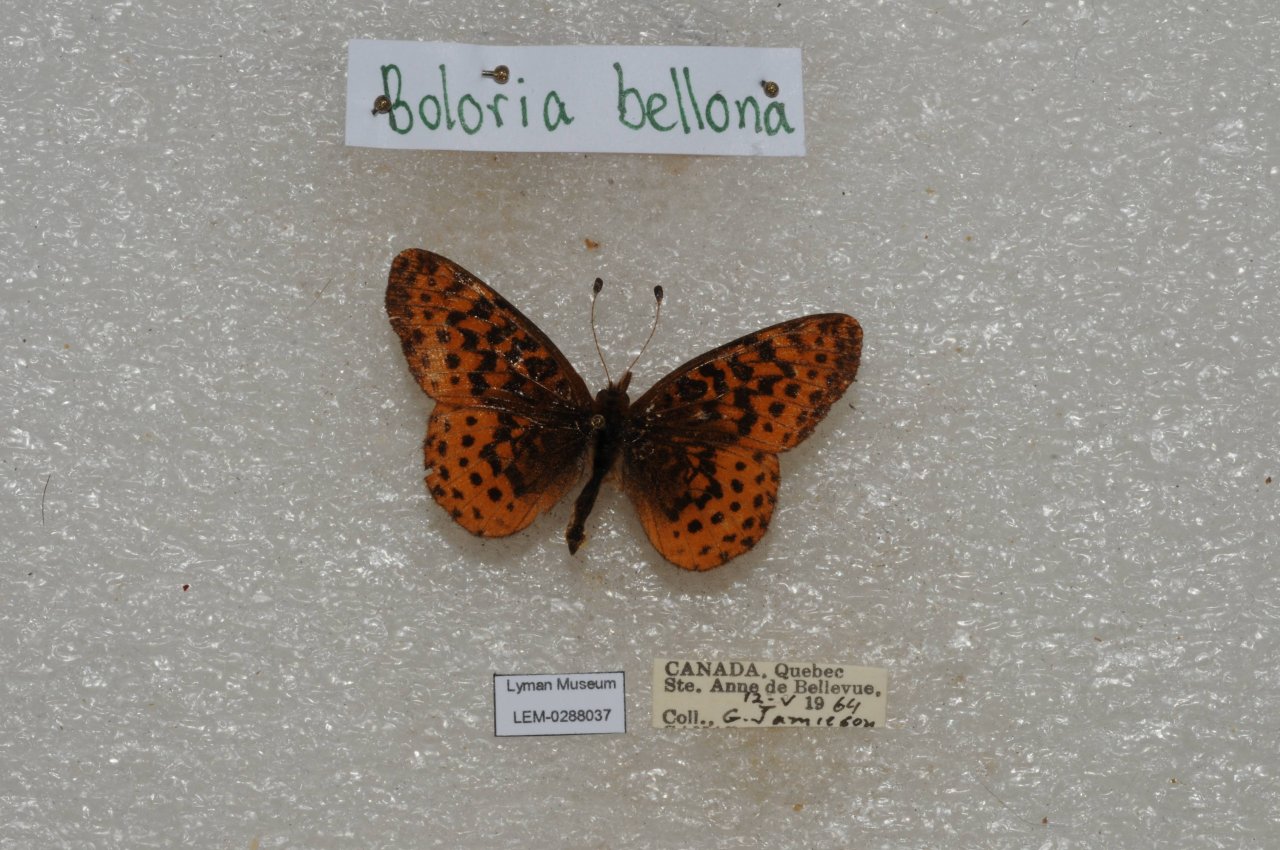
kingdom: Animalia
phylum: Arthropoda
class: Insecta
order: Lepidoptera
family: Nymphalidae
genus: Clossiana
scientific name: Clossiana toddi
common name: Meadow Fritillary
